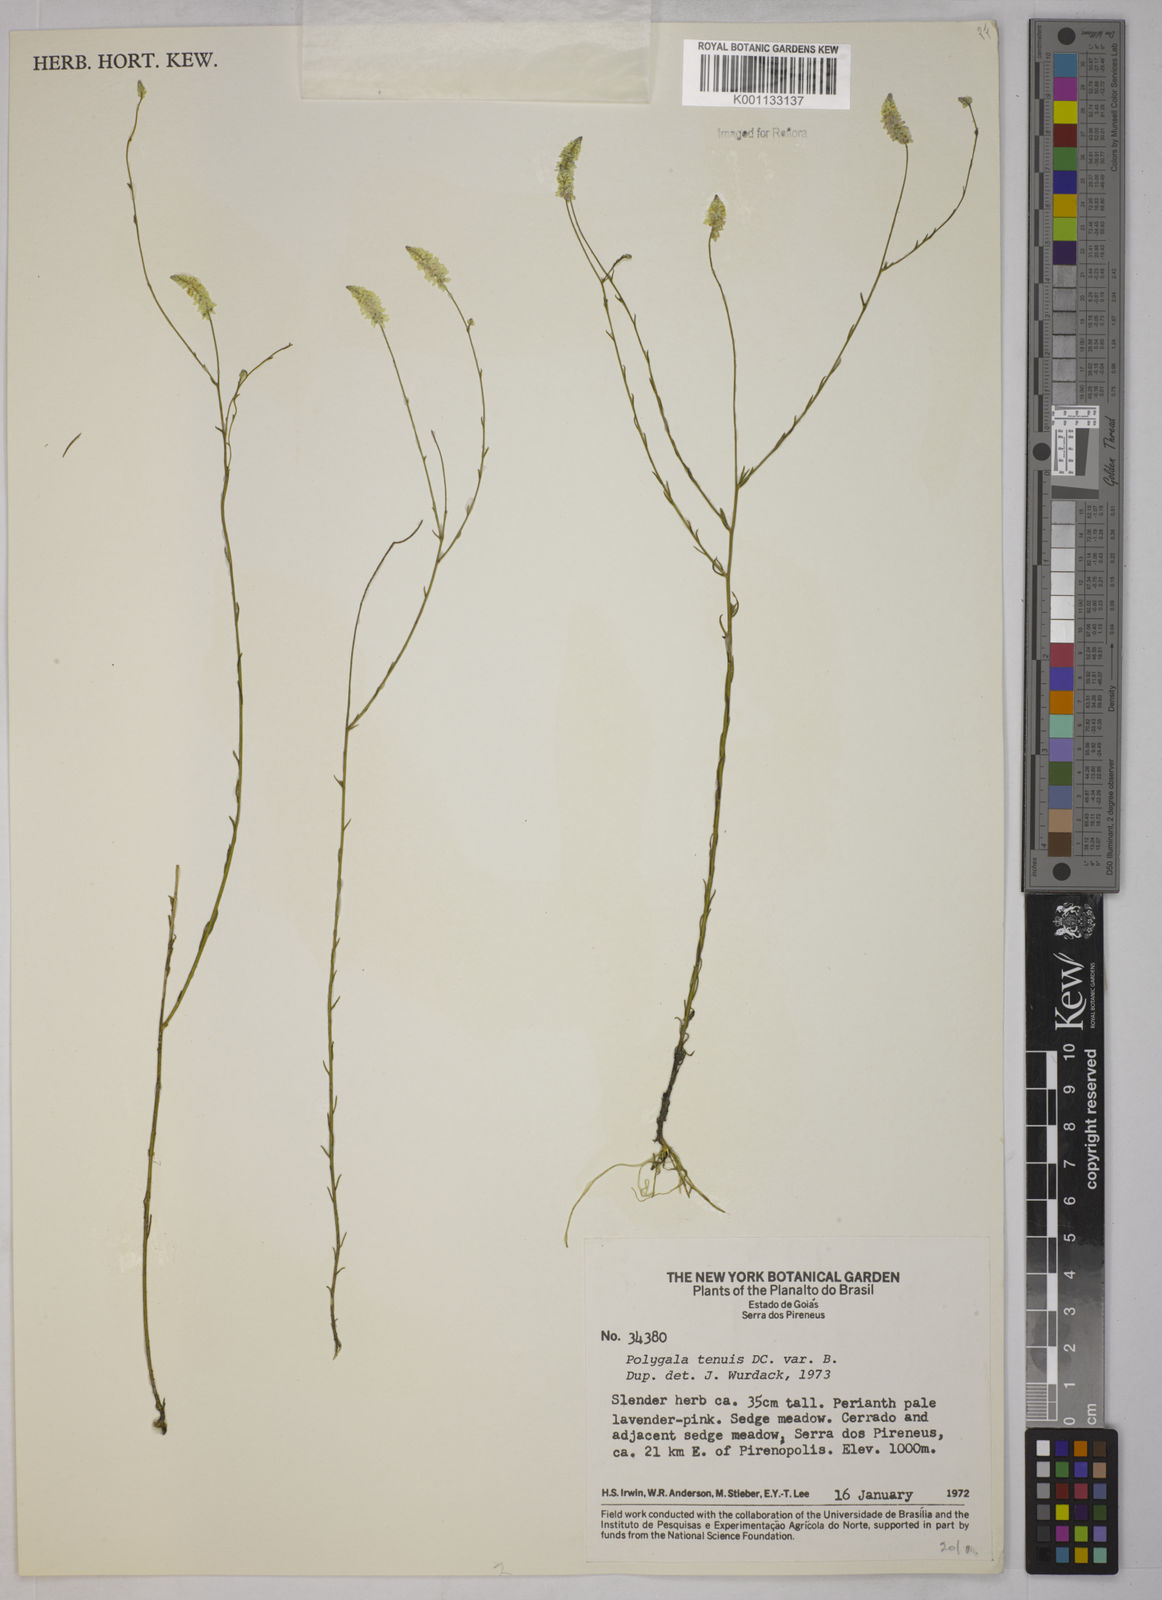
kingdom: Plantae
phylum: Tracheophyta
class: Magnoliopsida
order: Fabales
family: Polygalaceae
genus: Polygala
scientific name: Polygala tenuis
